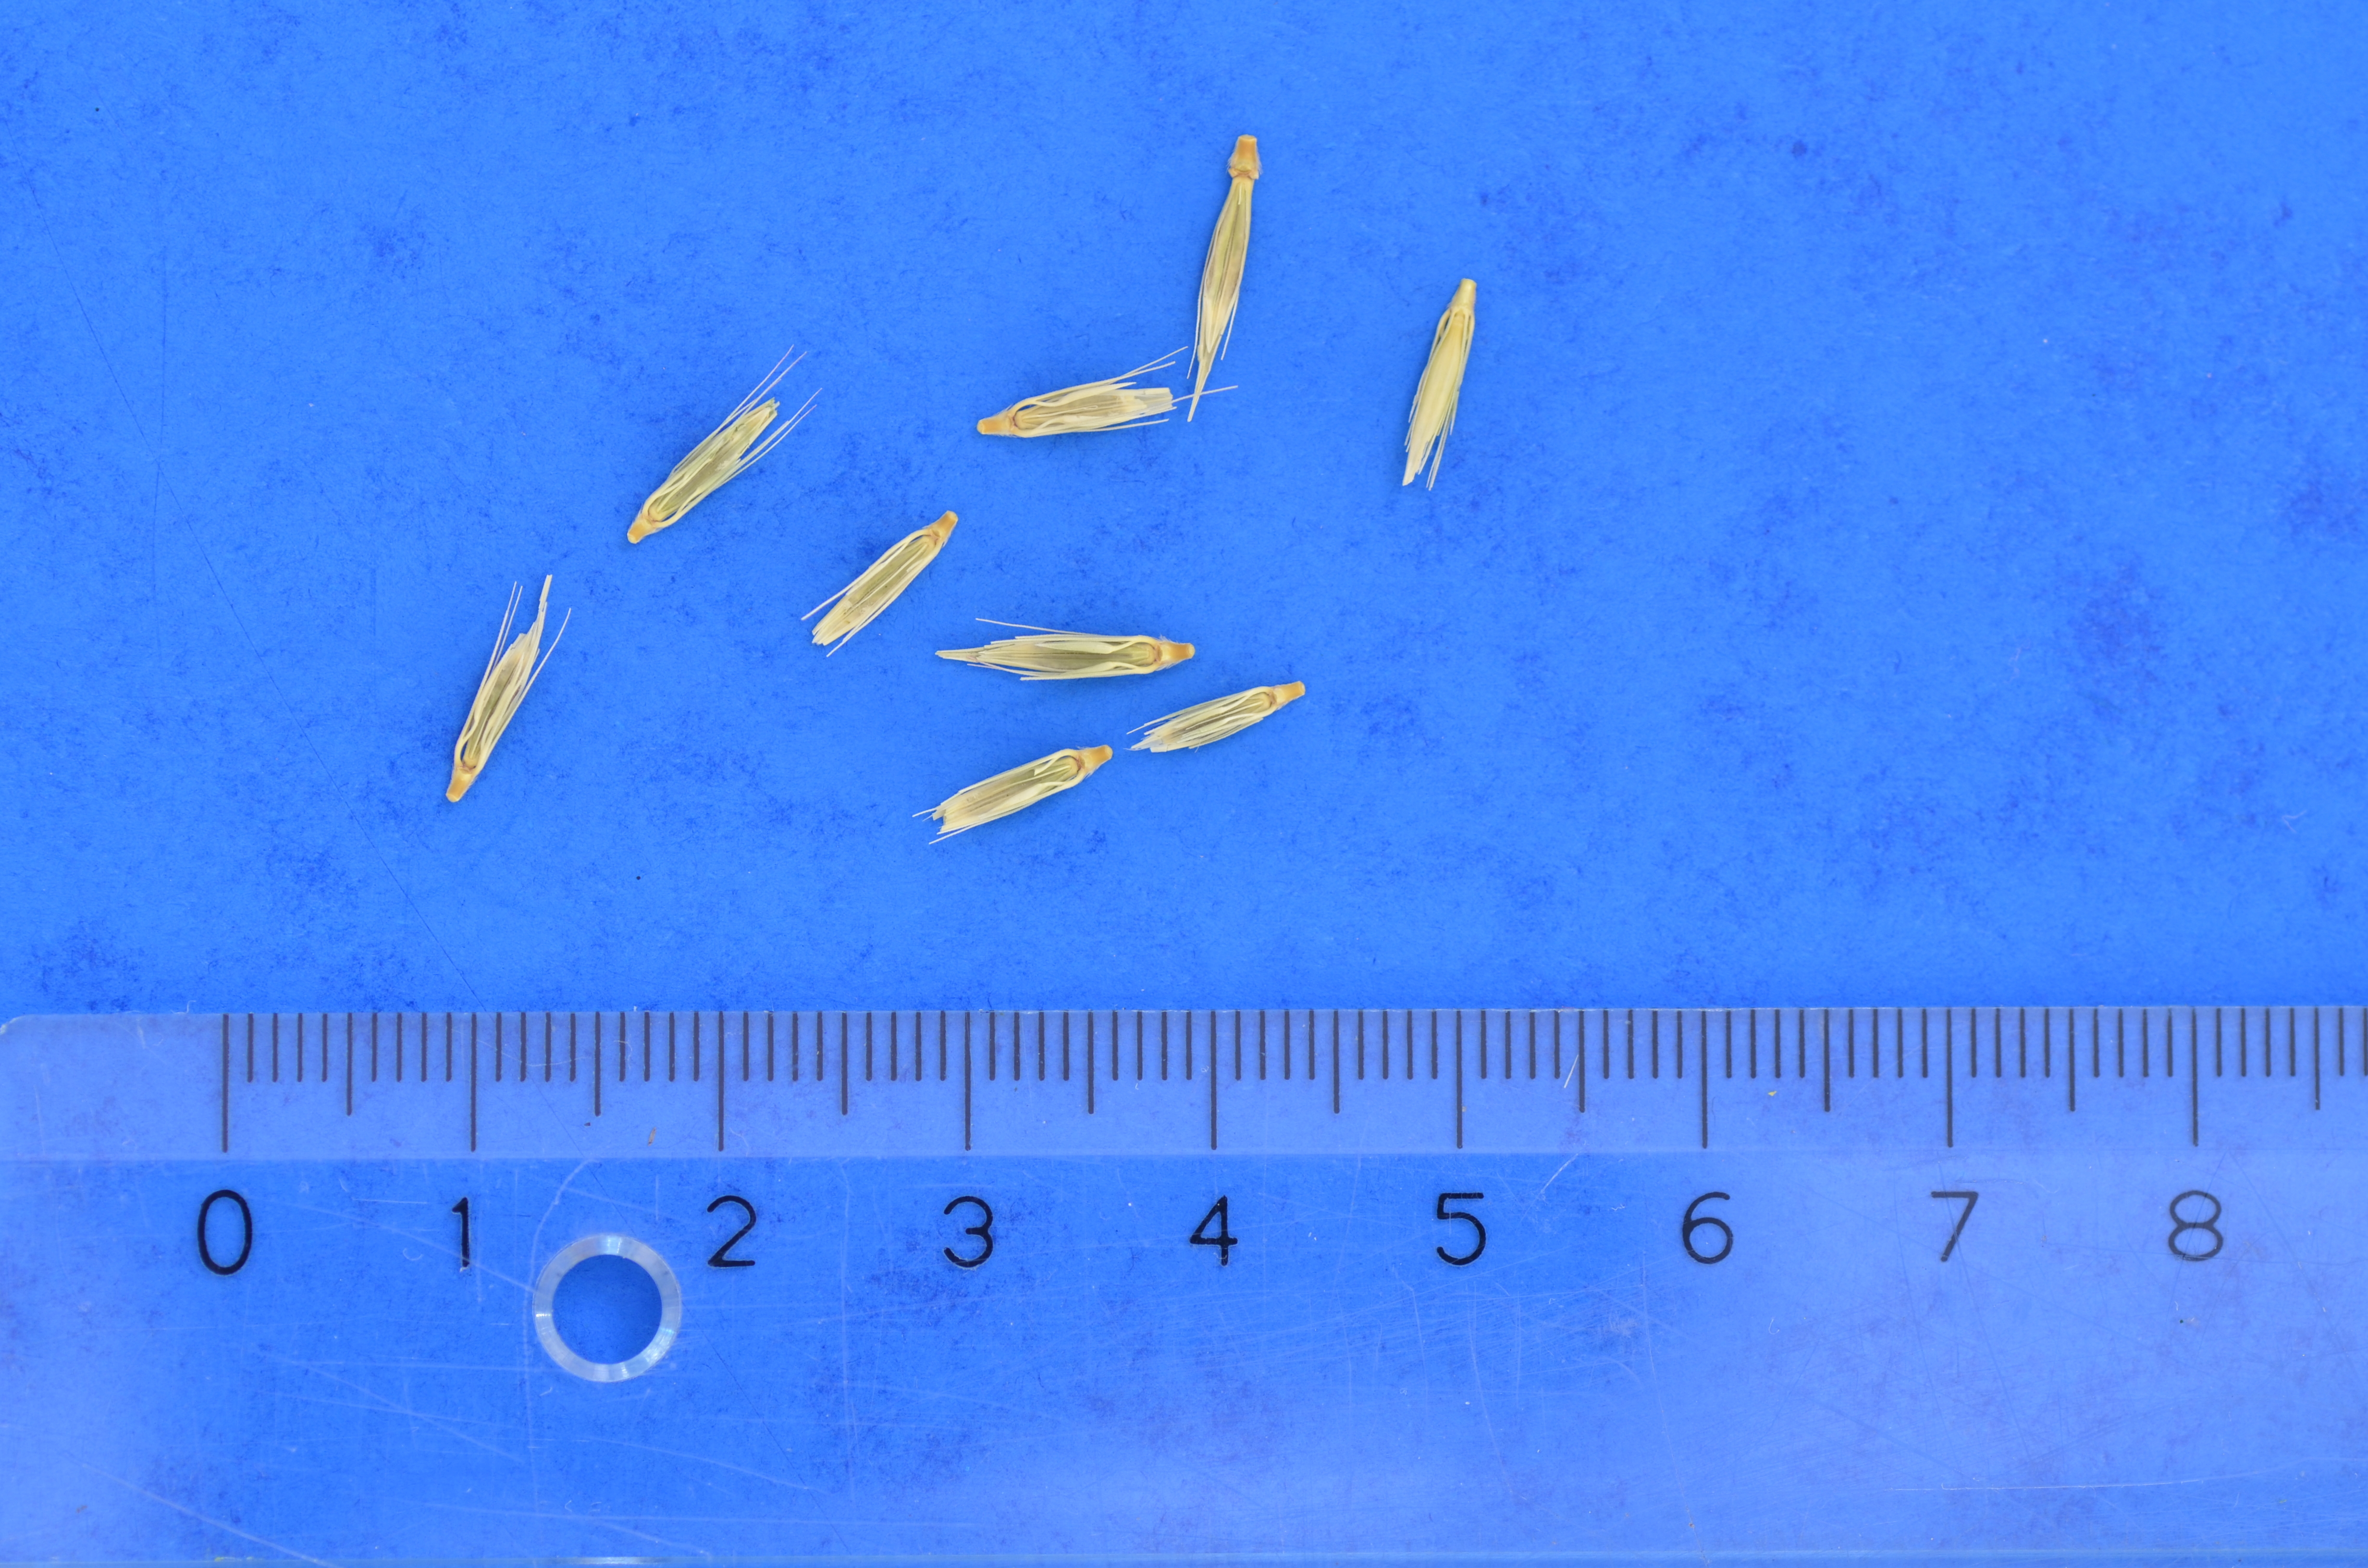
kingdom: Plantae
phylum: Tracheophyta
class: Liliopsida
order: Poales
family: Poaceae
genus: Hordeum
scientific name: Hordeum bogdanii
